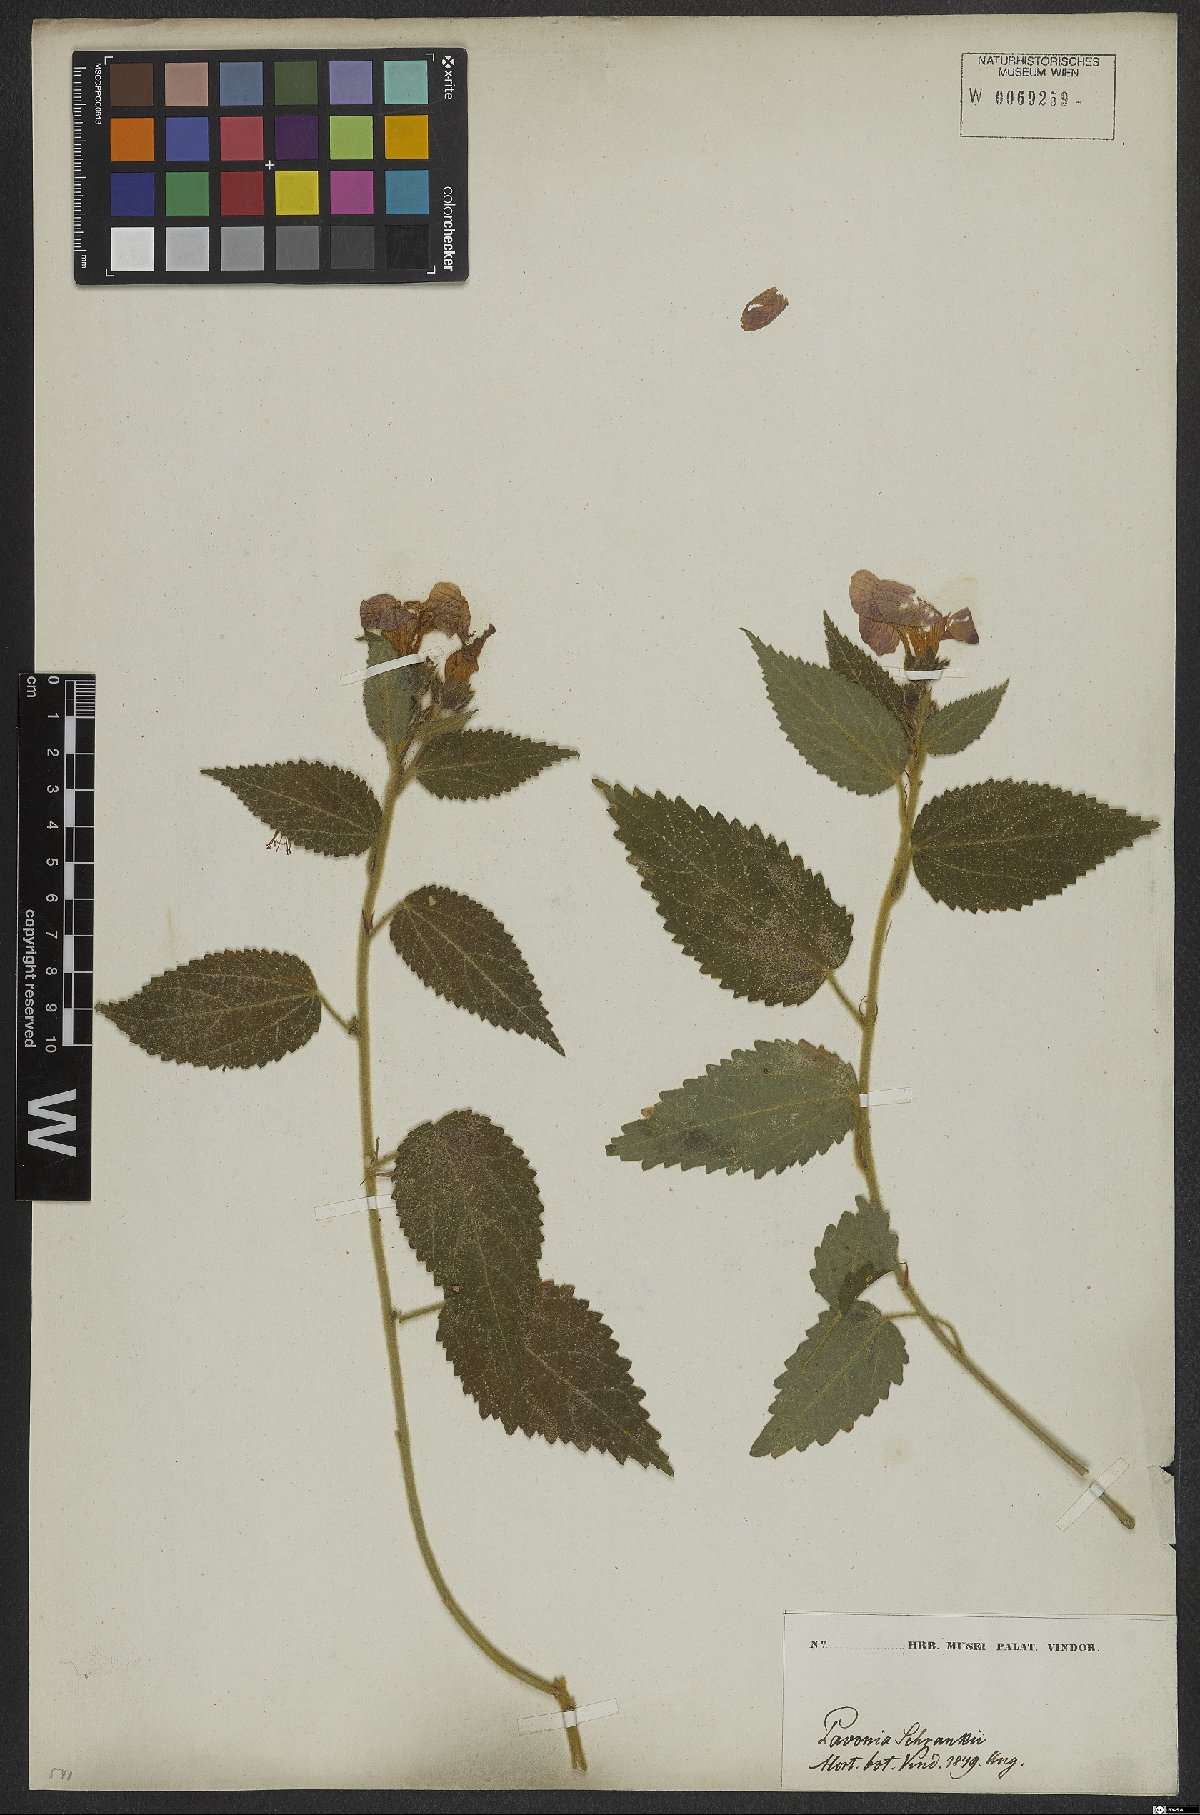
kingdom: Plantae
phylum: Tracheophyta
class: Magnoliopsida
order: Malvales
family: Malvaceae
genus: Pavonia
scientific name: Pavonia schrankii
